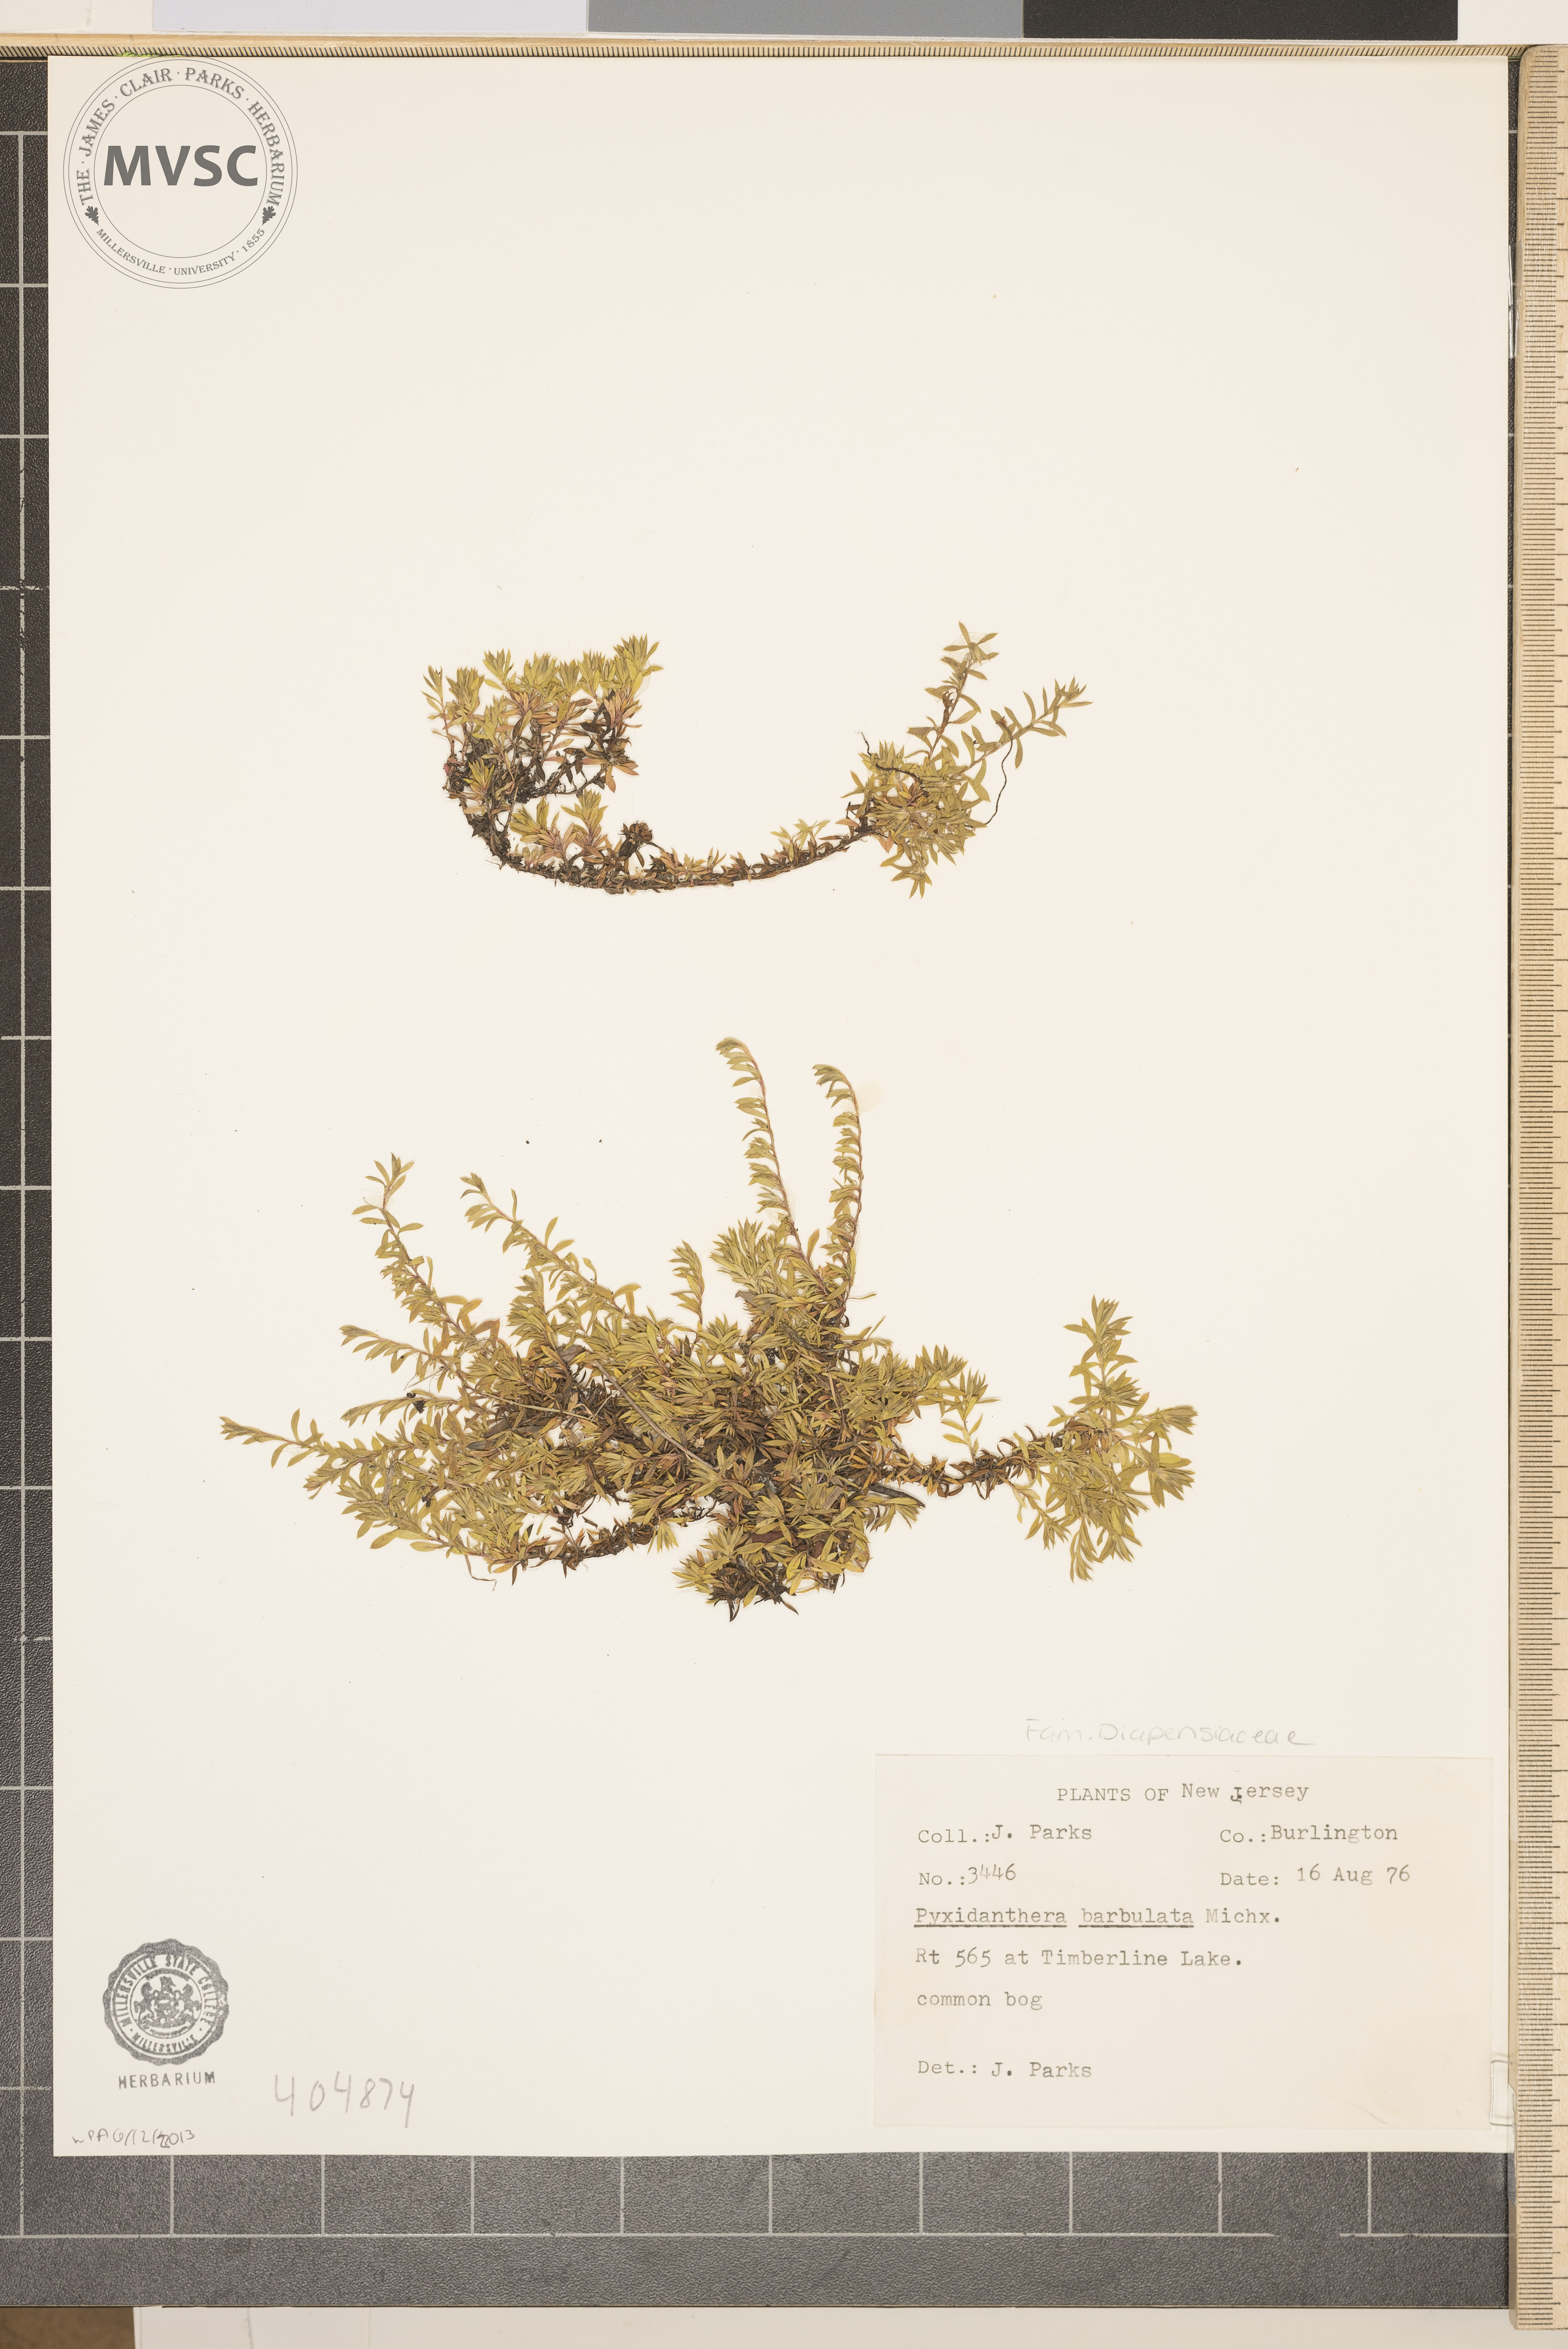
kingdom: Plantae
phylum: Tracheophyta
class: Magnoliopsida
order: Ericales
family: Diapensiaceae
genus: Pyxidanthera
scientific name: Pyxidanthera barbulata
